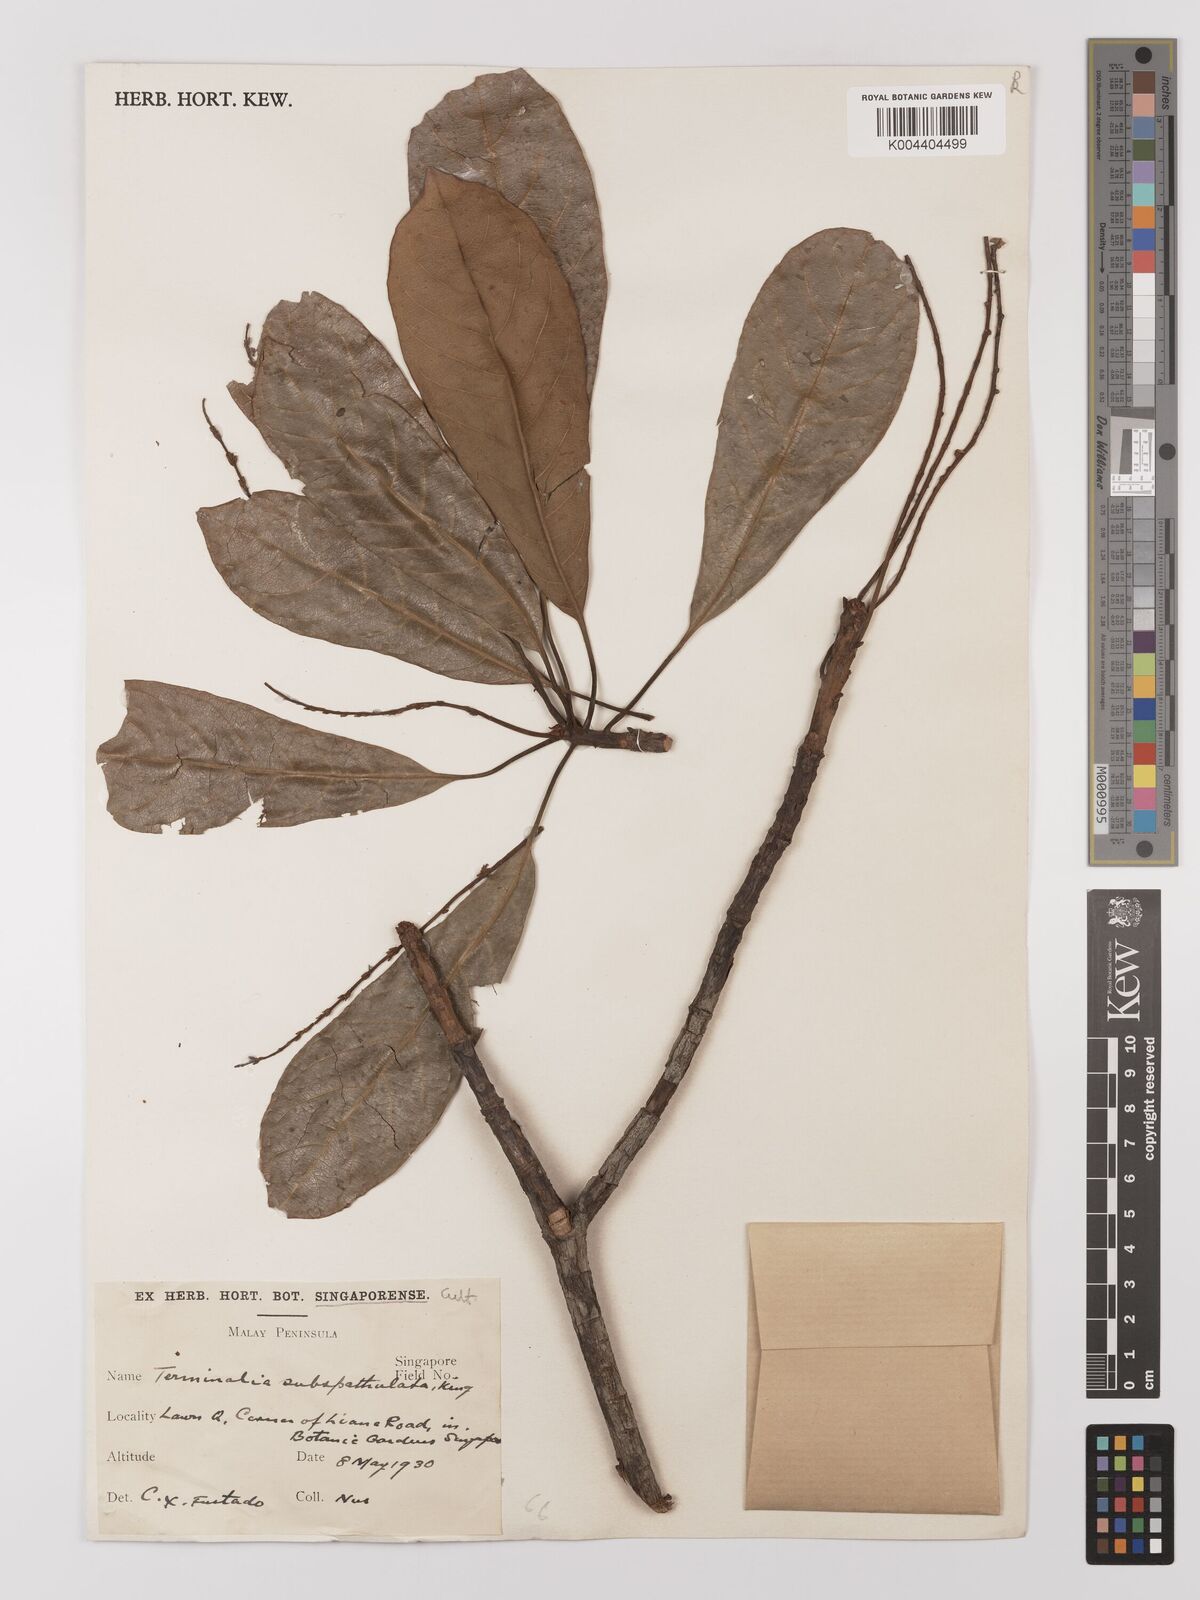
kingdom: Plantae
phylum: Tracheophyta
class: Magnoliopsida
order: Myrtales
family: Combretaceae
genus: Terminalia
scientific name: Terminalia subspathulata
